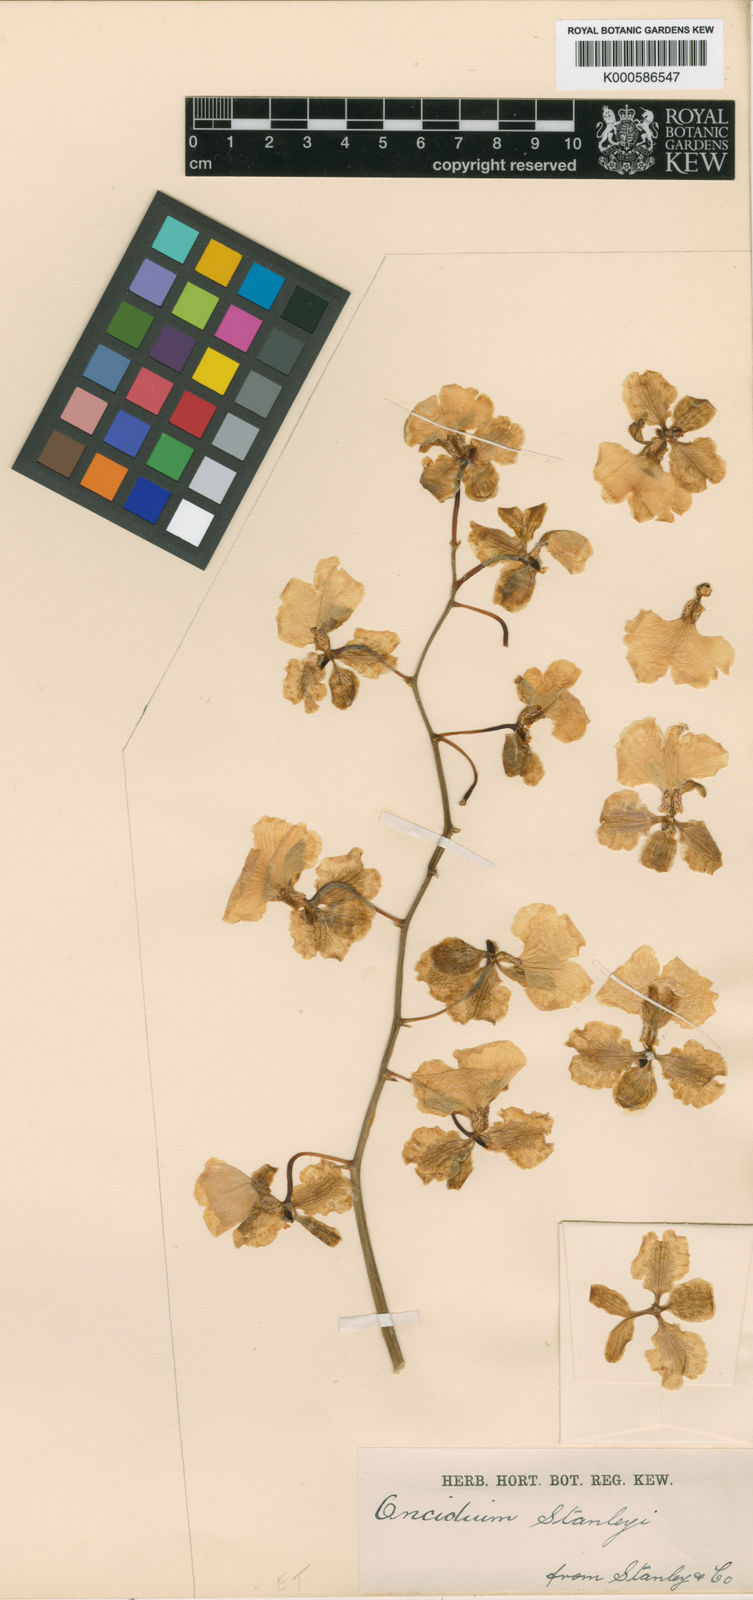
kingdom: Plantae
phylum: Tracheophyta
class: Liliopsida
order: Asparagales
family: Orchidaceae
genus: Gomesa
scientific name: Gomesa stanleyi
